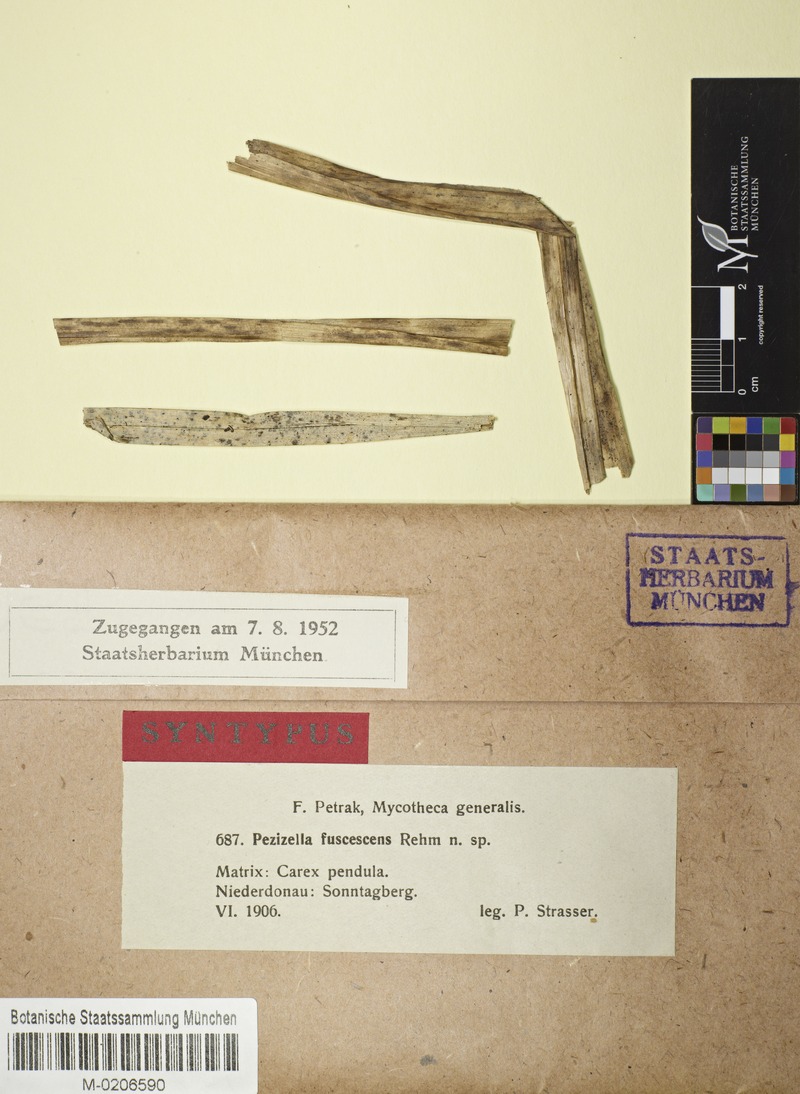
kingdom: Fungi
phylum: Ascomycota
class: Leotiomycetes
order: Helotiales
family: Ploettnerulaceae
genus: Pyrenopeziza
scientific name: Pyrenopeziza fuscescens
